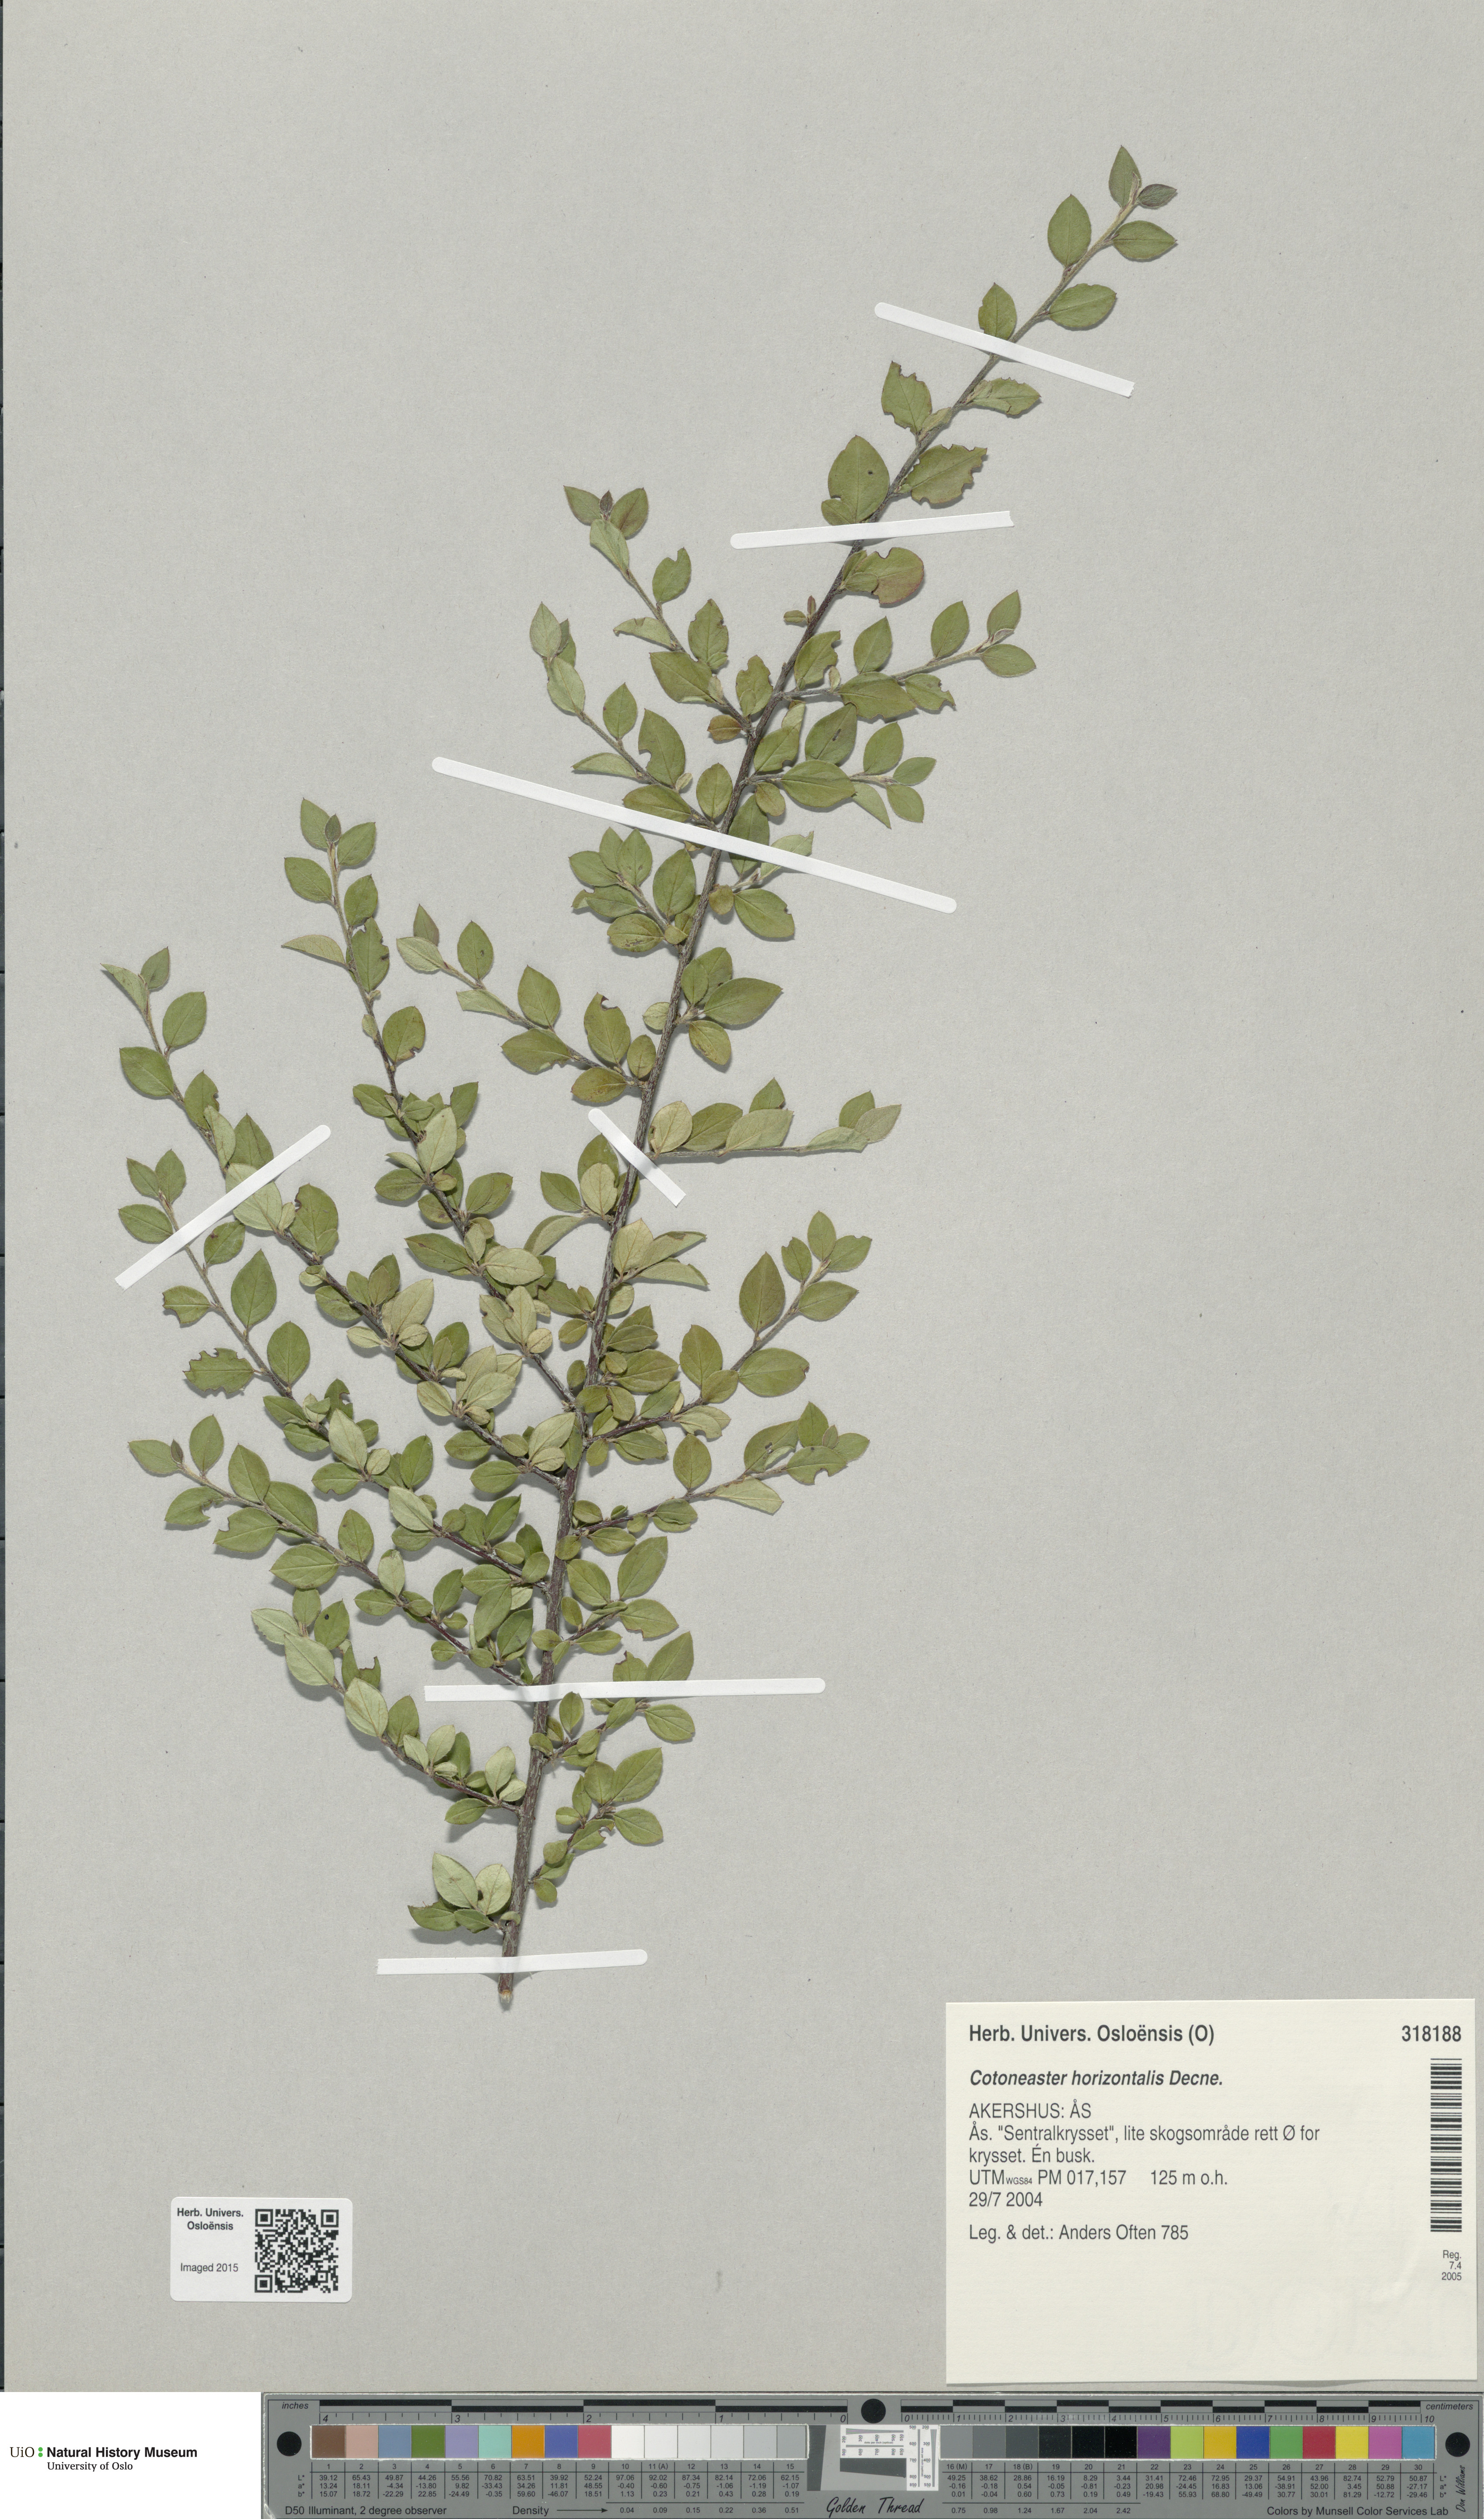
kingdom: Plantae
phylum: Tracheophyta
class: Magnoliopsida
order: Rosales
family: Rosaceae
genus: Cotoneaster
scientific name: Cotoneaster horizontalis
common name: Wall cotoneaster
